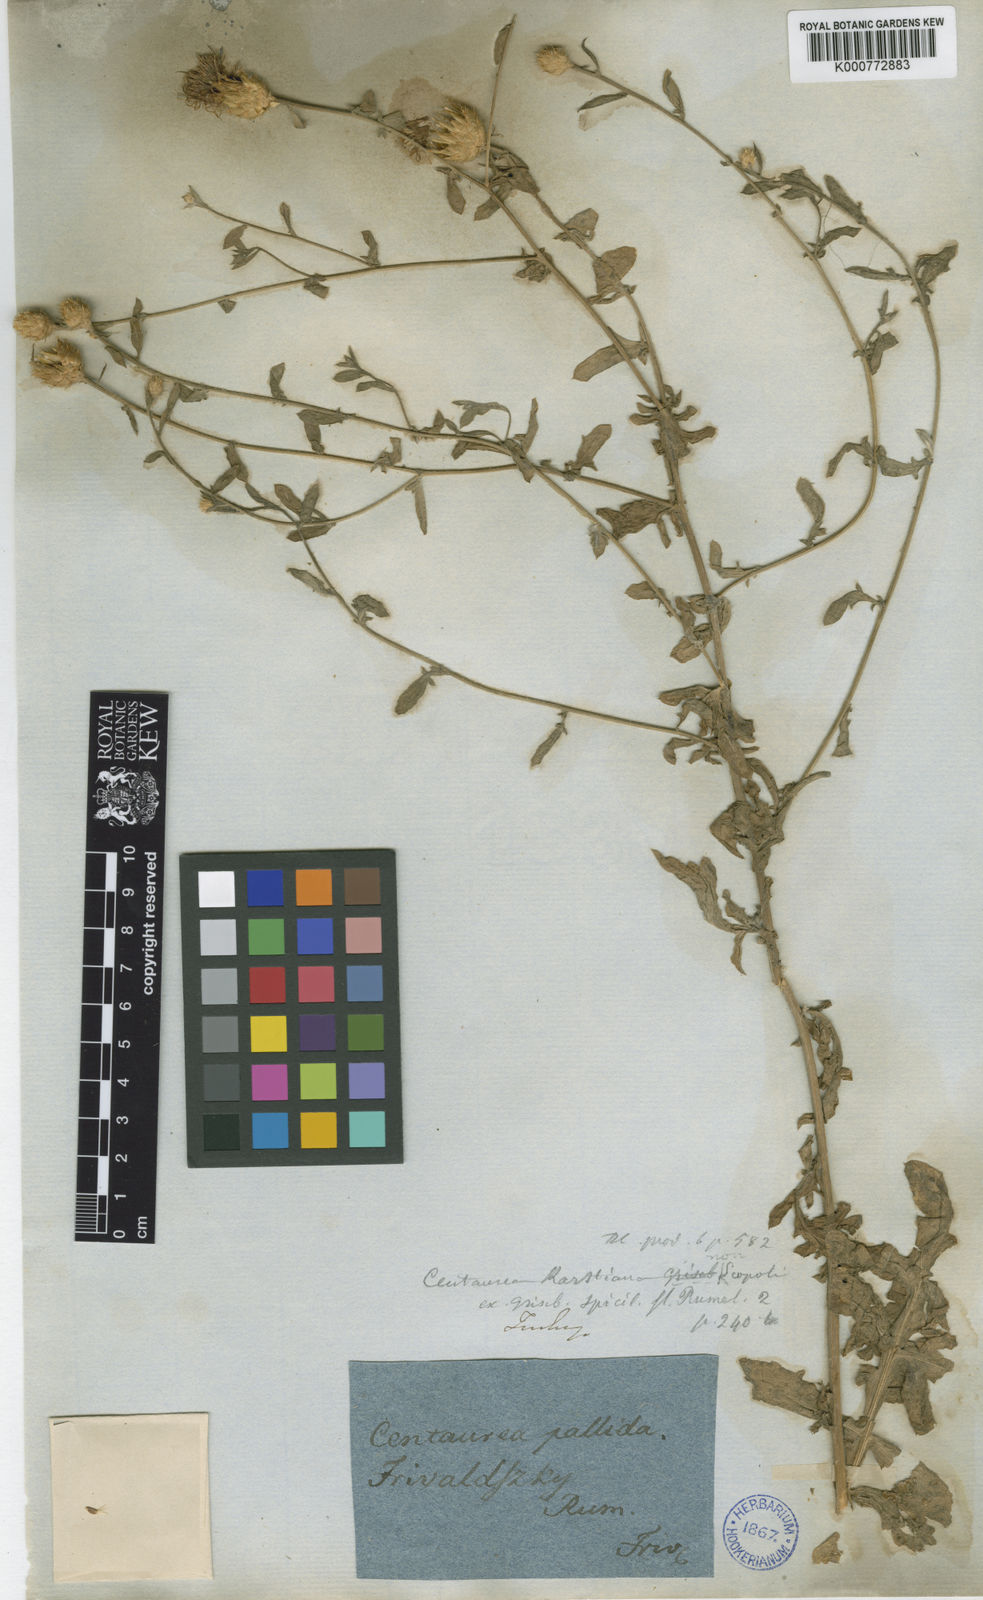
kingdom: Plantae
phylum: Tracheophyta
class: Magnoliopsida
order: Asterales
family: Asteraceae
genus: Centaurea
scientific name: Centaurea cuneifolia
